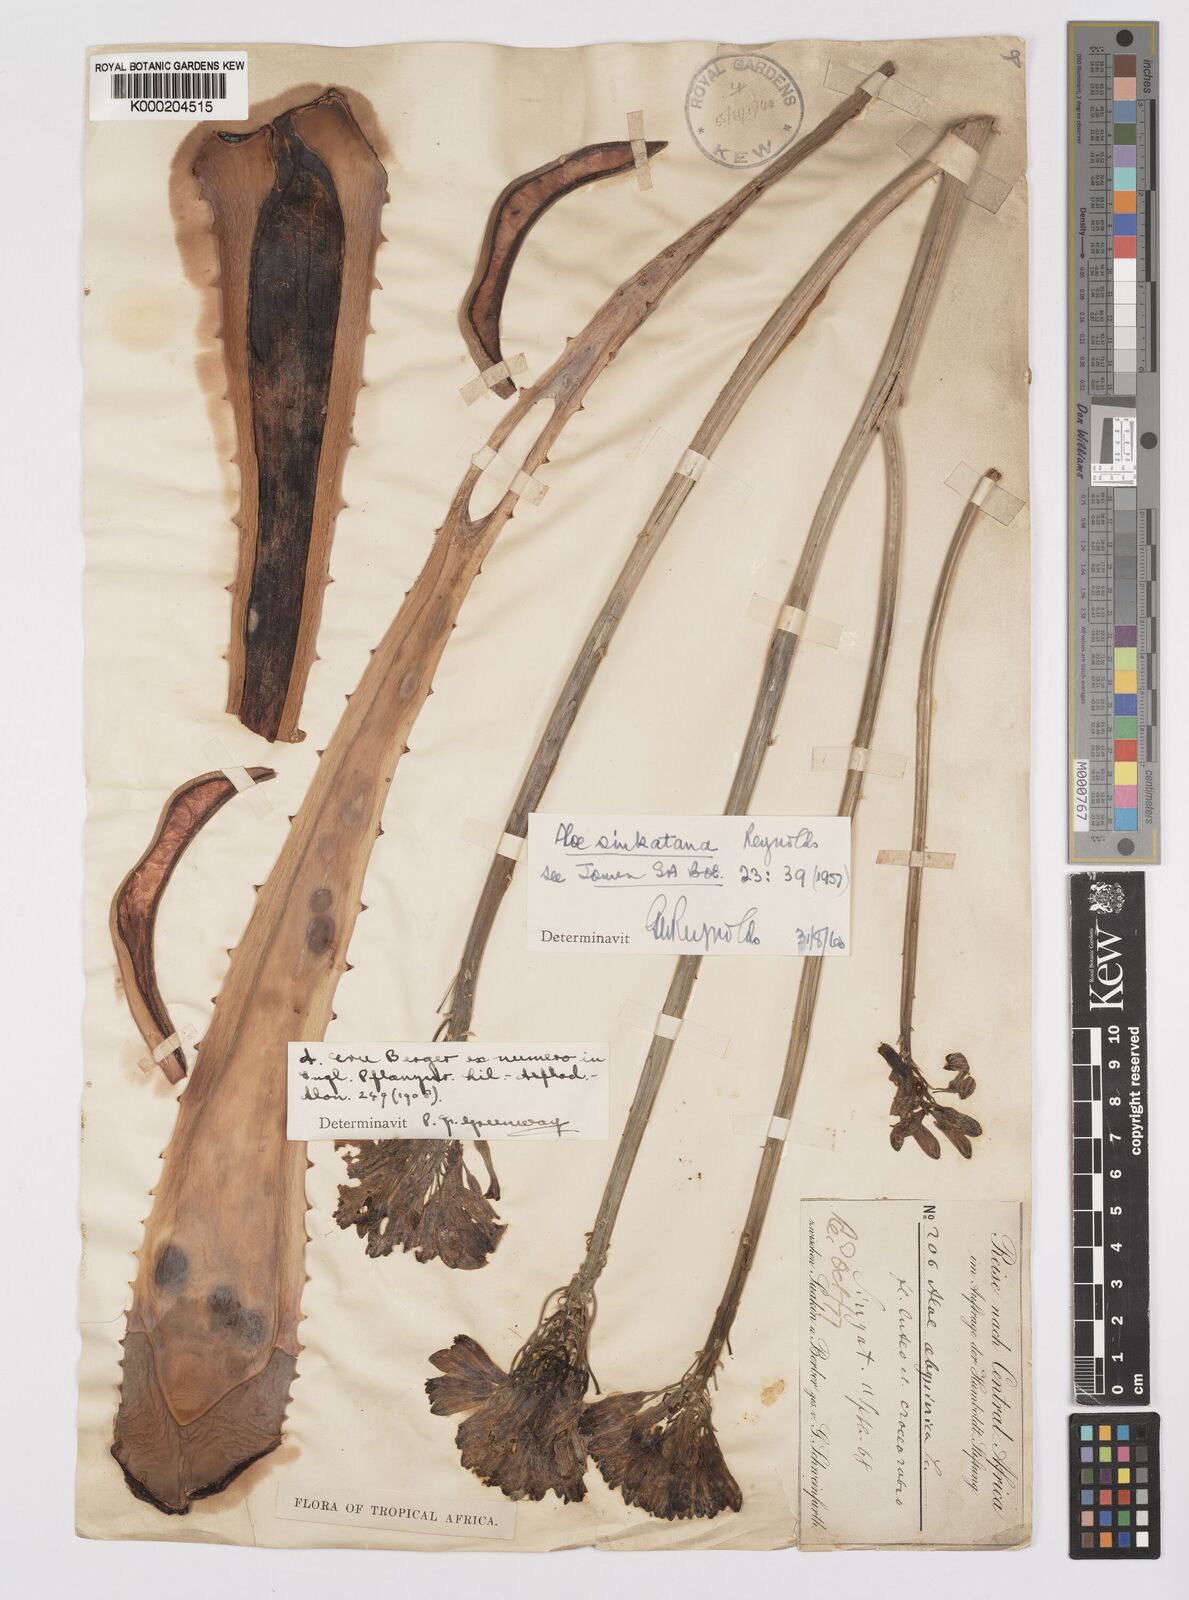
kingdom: Plantae
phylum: Tracheophyta
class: Liliopsida
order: Asparagales
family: Asphodelaceae
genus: Aloe
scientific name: Aloe sinkatana
